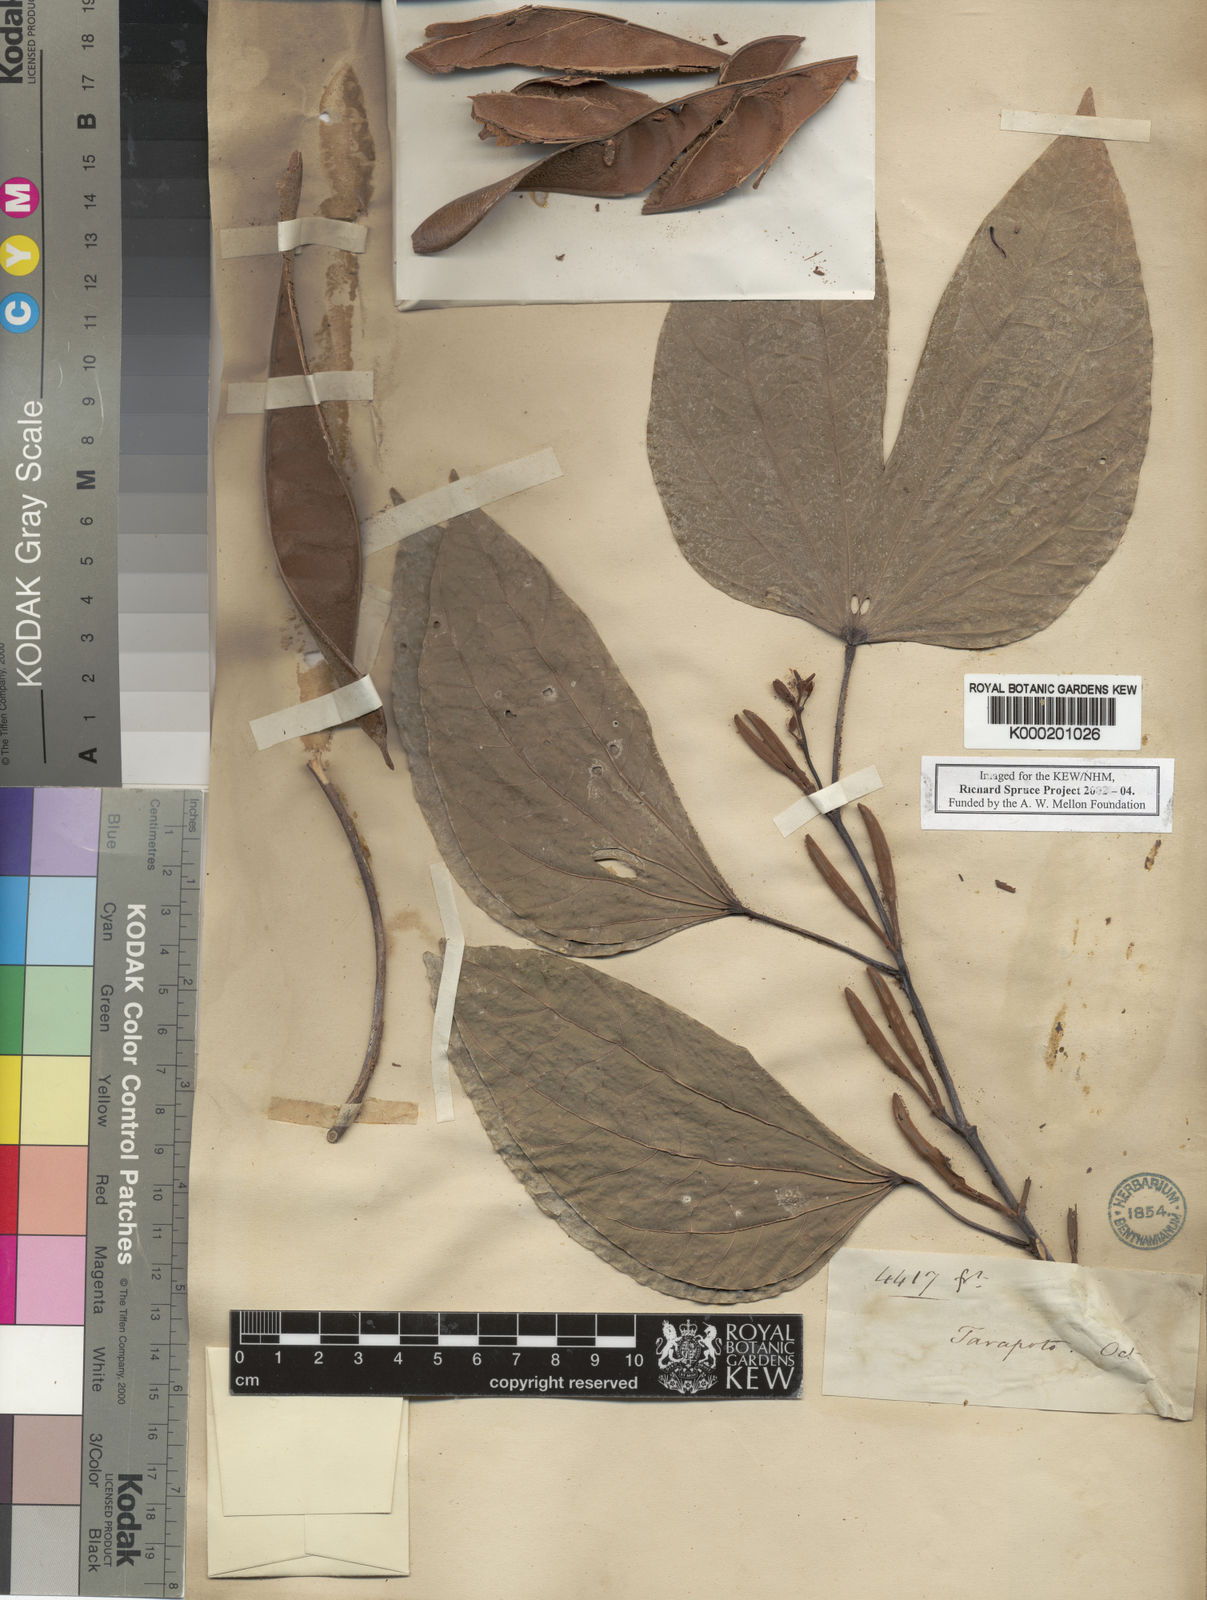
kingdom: Plantae
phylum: Tracheophyta
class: Magnoliopsida
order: Fabales
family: Fabaceae
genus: Bauhinia
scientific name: Bauhinia tarapotensis
